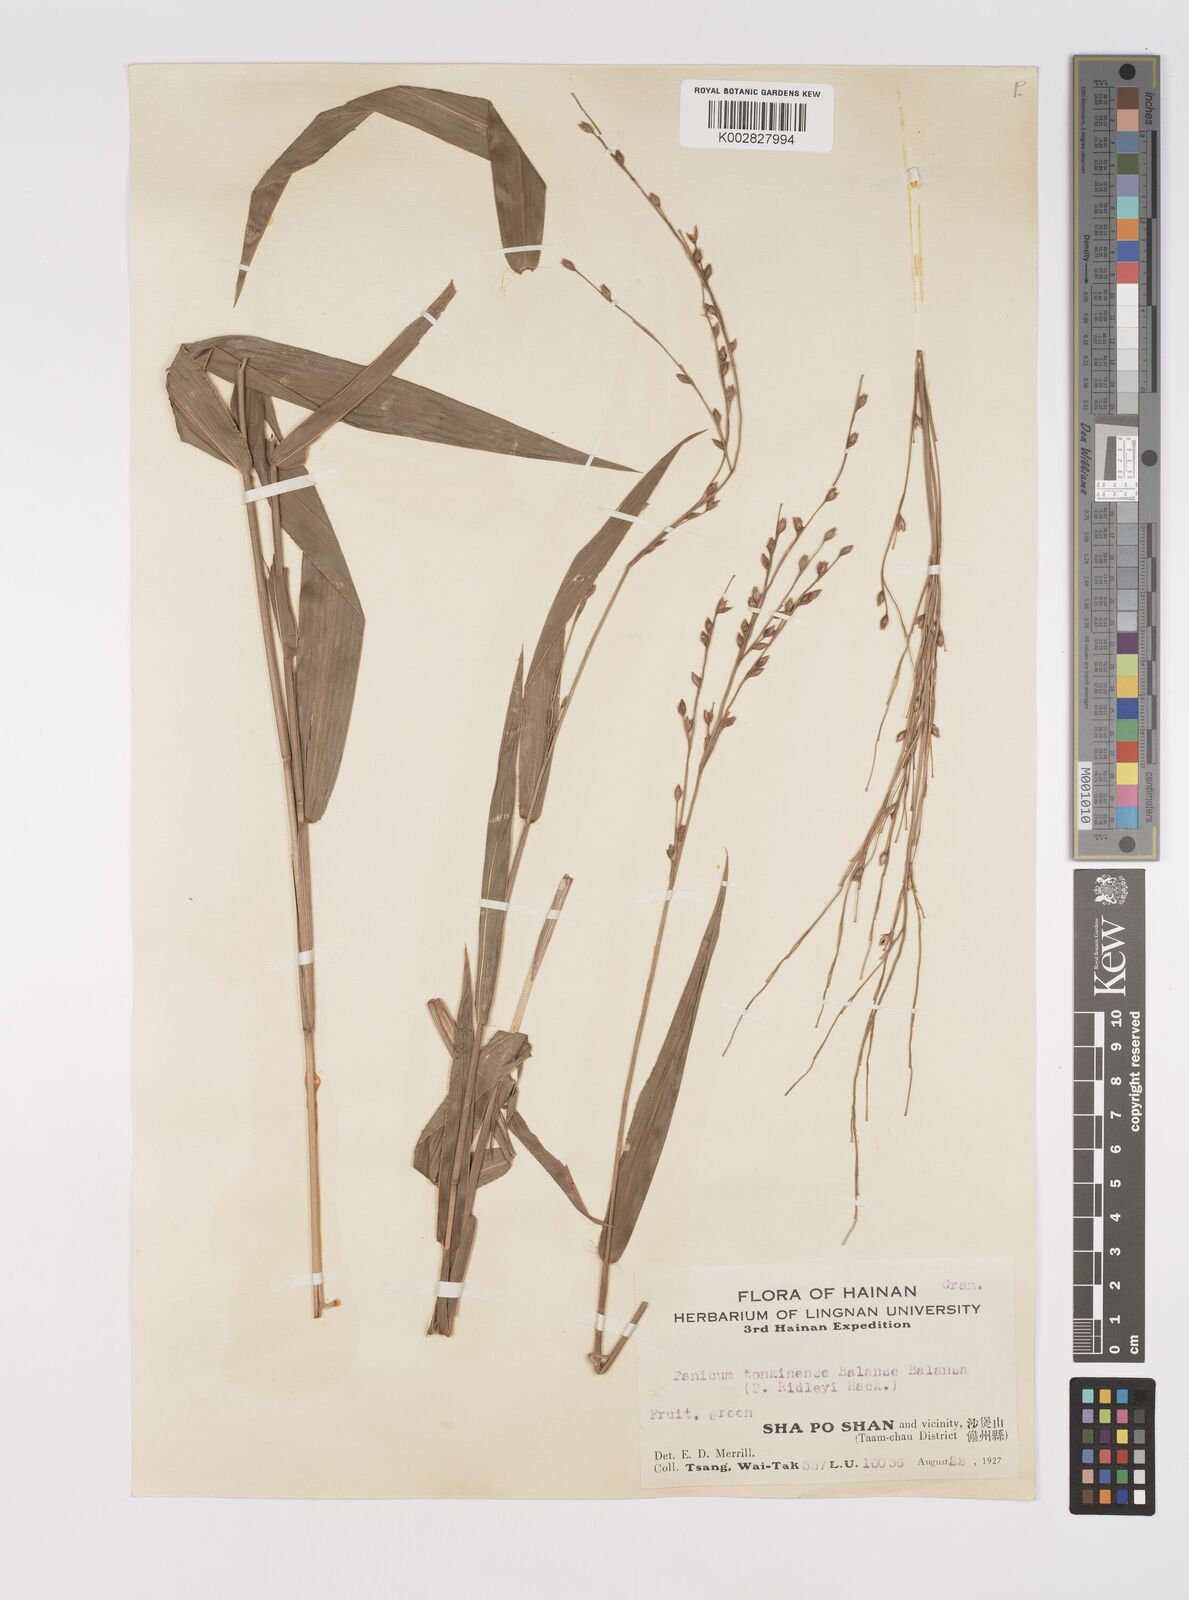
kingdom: Plantae
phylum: Tracheophyta
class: Liliopsida
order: Poales
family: Poaceae
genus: Acroceras
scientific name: Acroceras tonkinense
